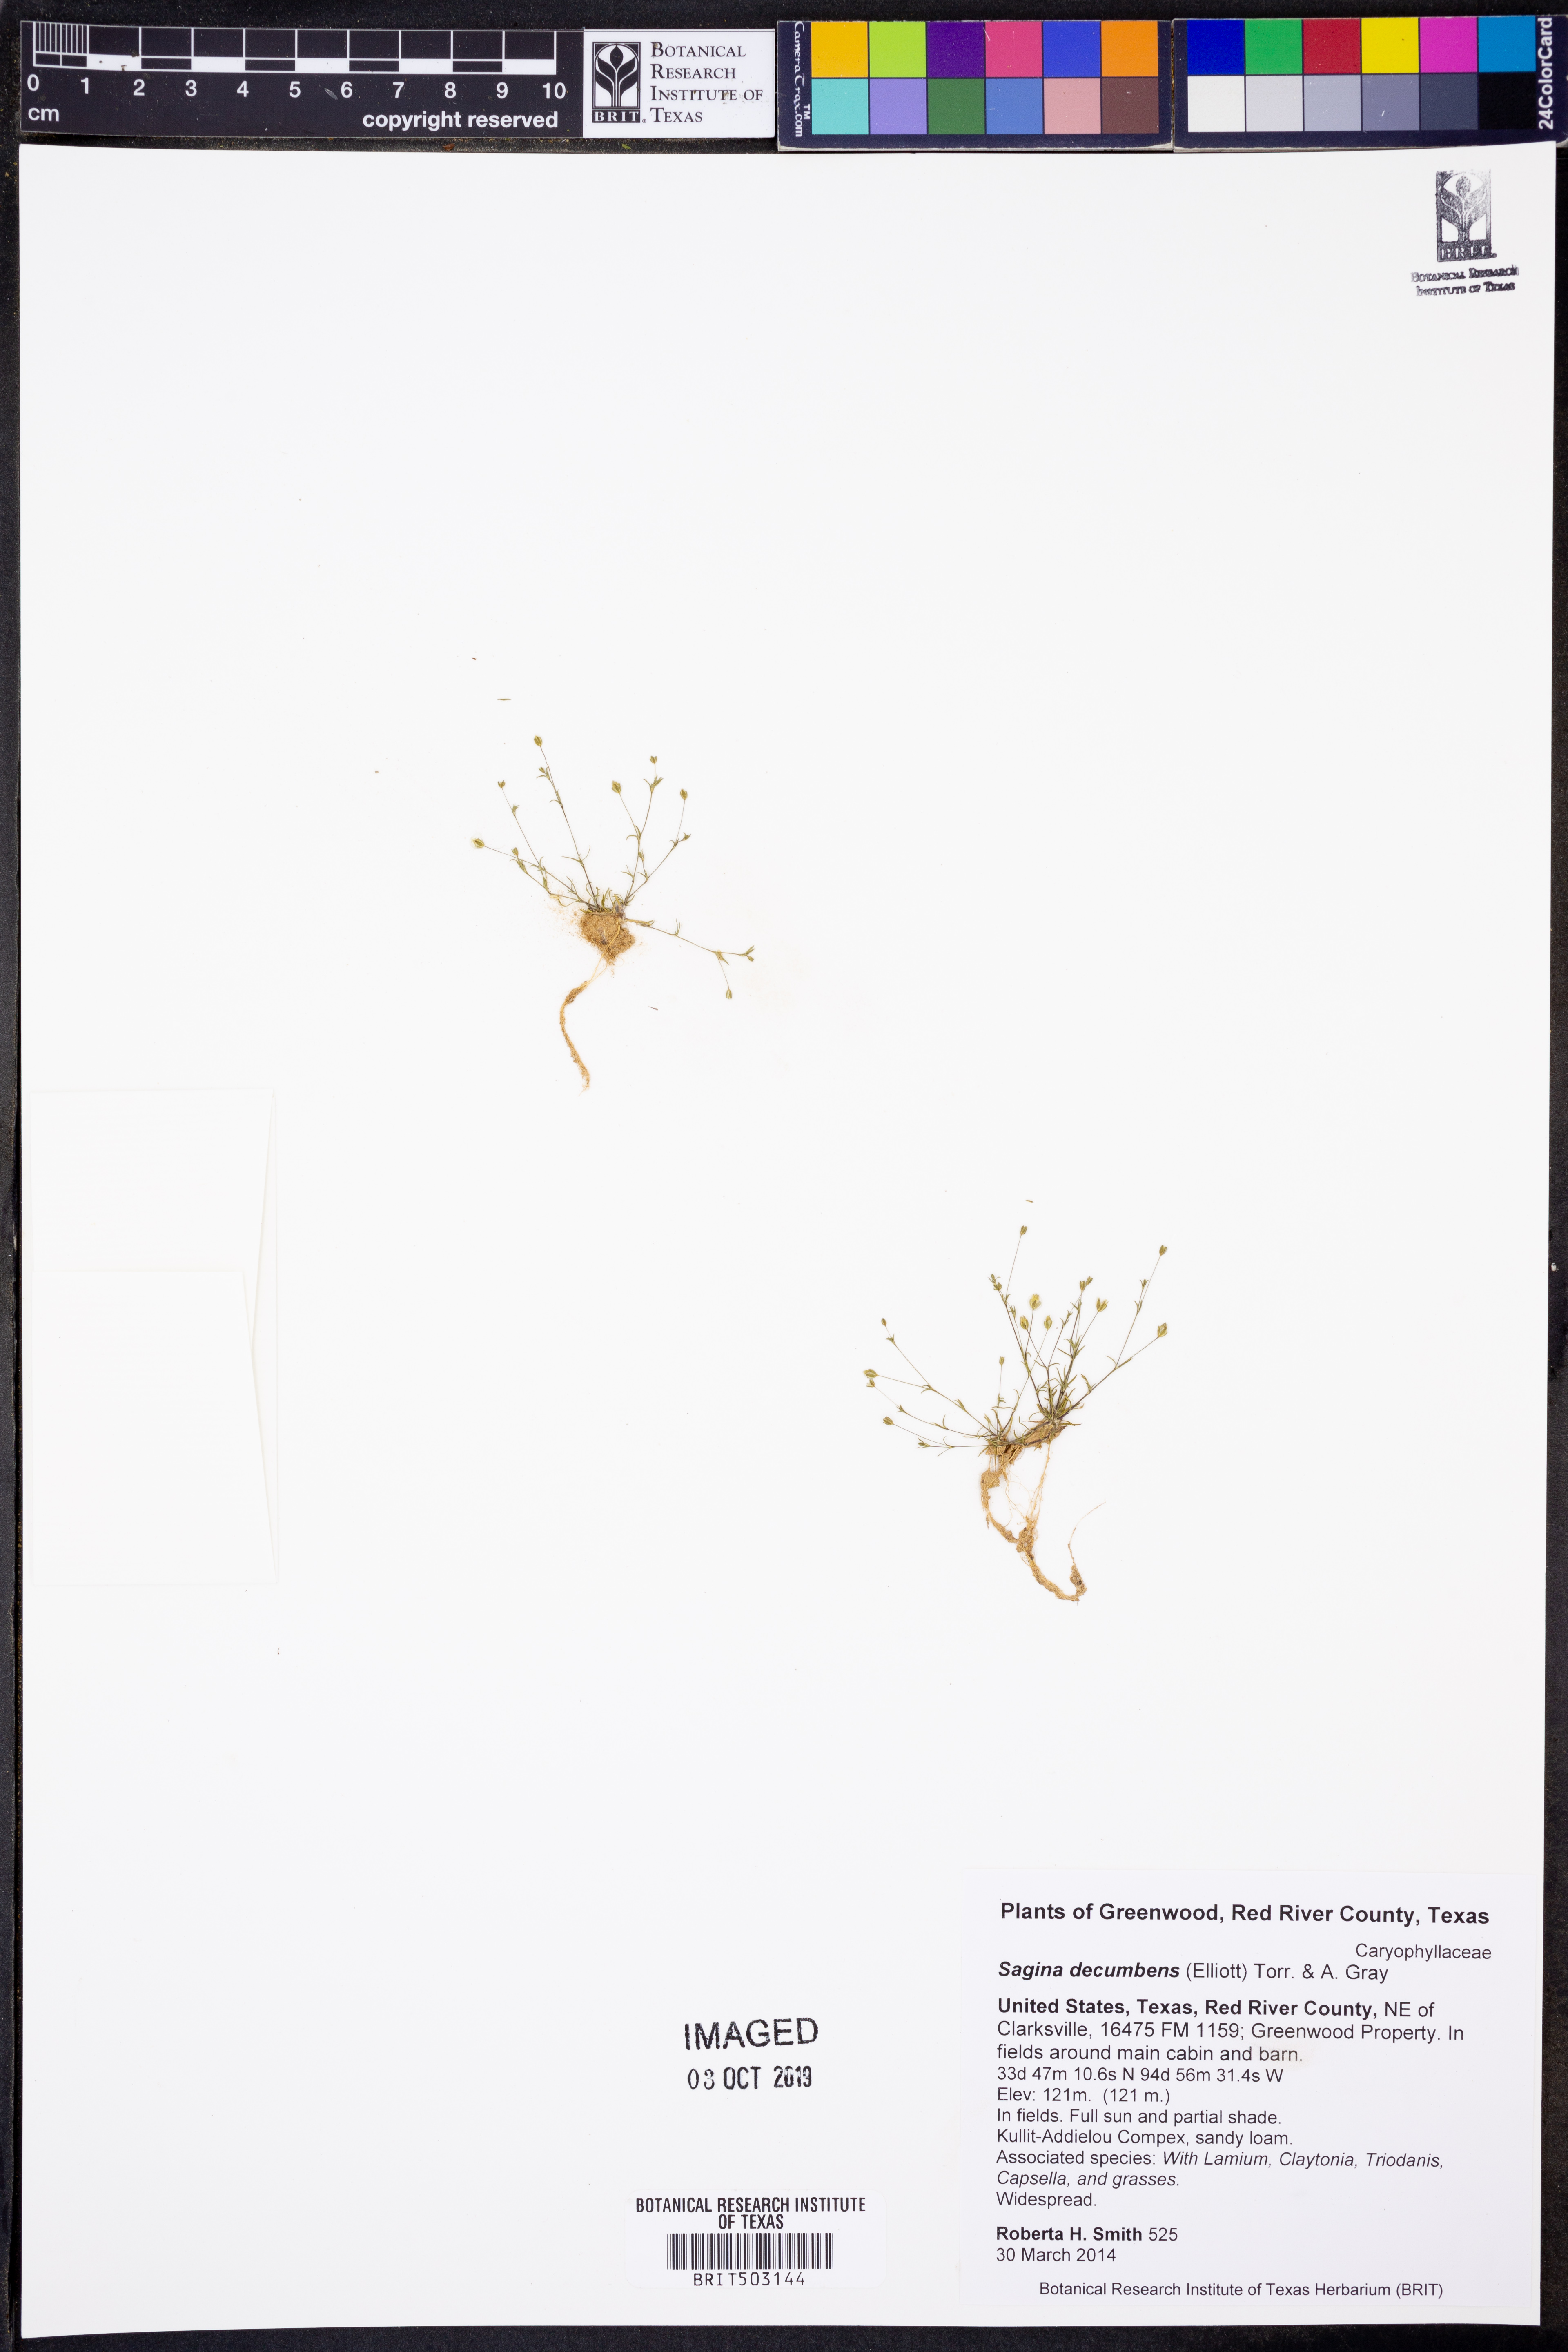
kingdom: Plantae
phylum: Tracheophyta
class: Magnoliopsida
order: Caryophyllales
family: Caryophyllaceae
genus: Sagina
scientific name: Sagina decumbens
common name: Decumbent pearlwort
